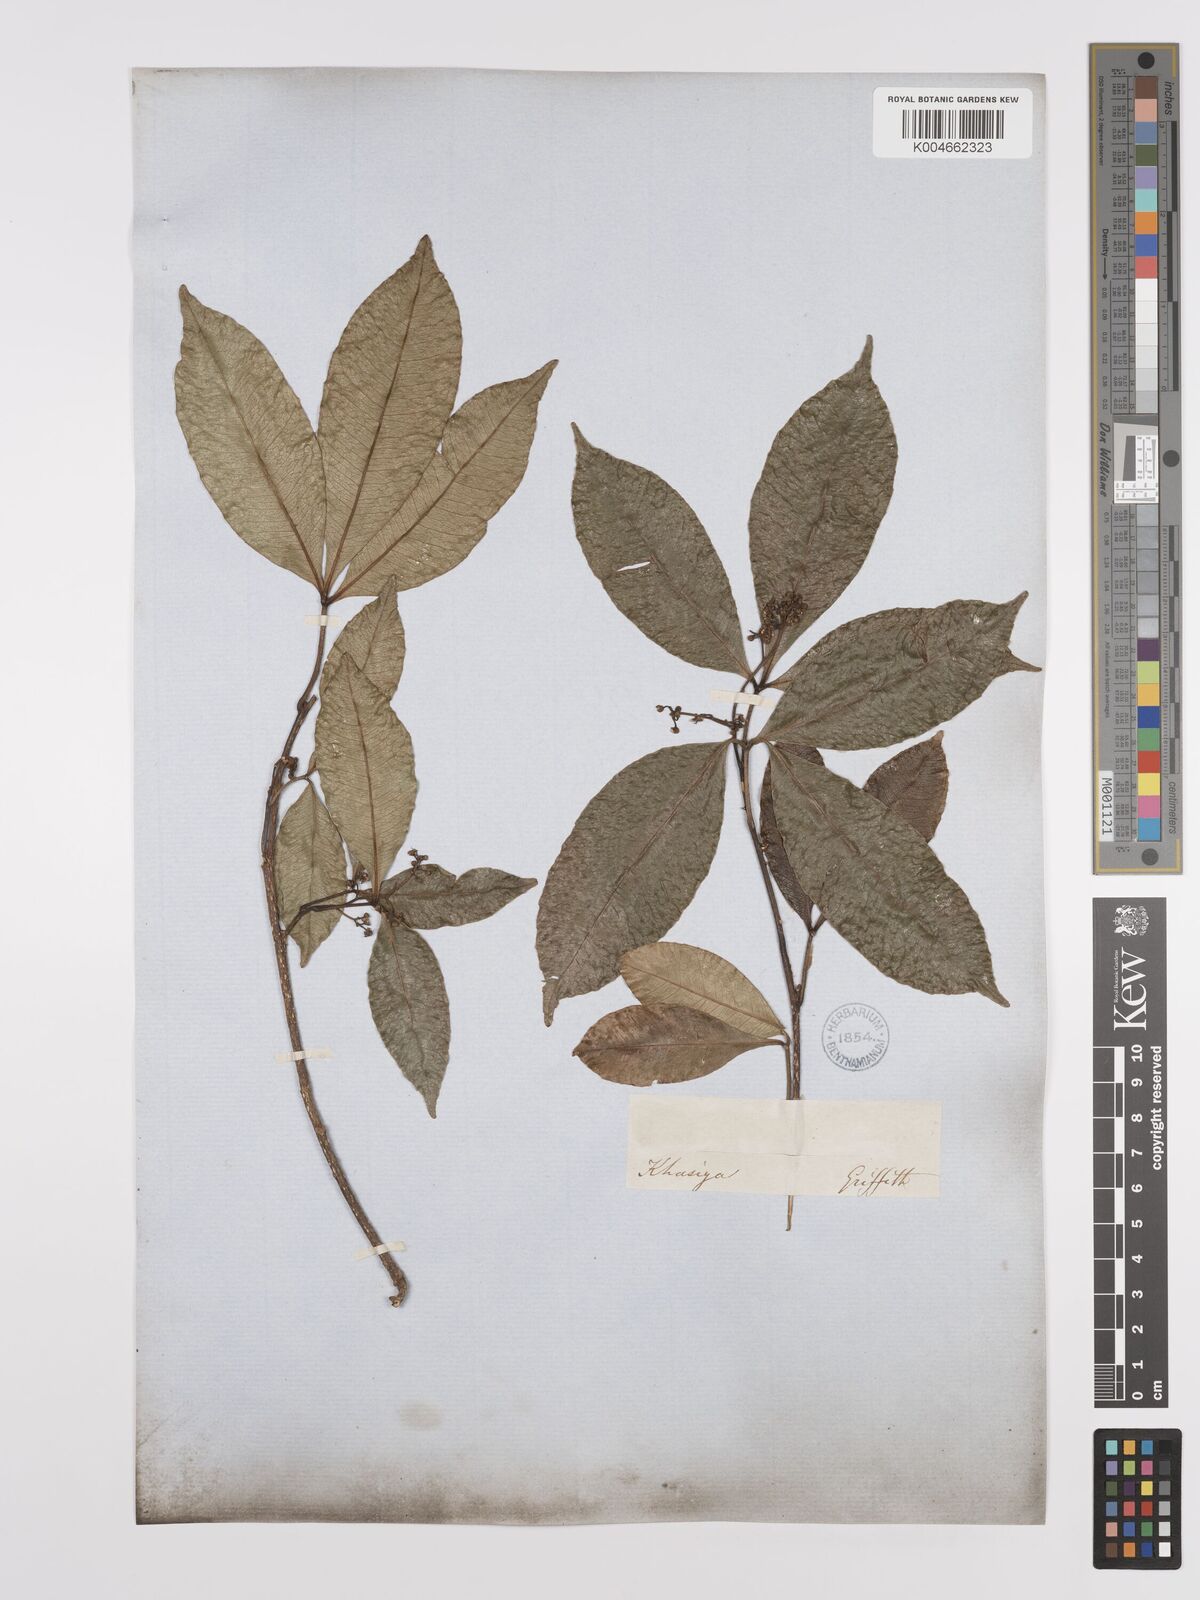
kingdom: Plantae
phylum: Tracheophyta
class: Magnoliopsida
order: Sapindales
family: Rutaceae
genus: Zanthoxylum
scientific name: Zanthoxylum ovalifolium
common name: Thorny yellowwood
